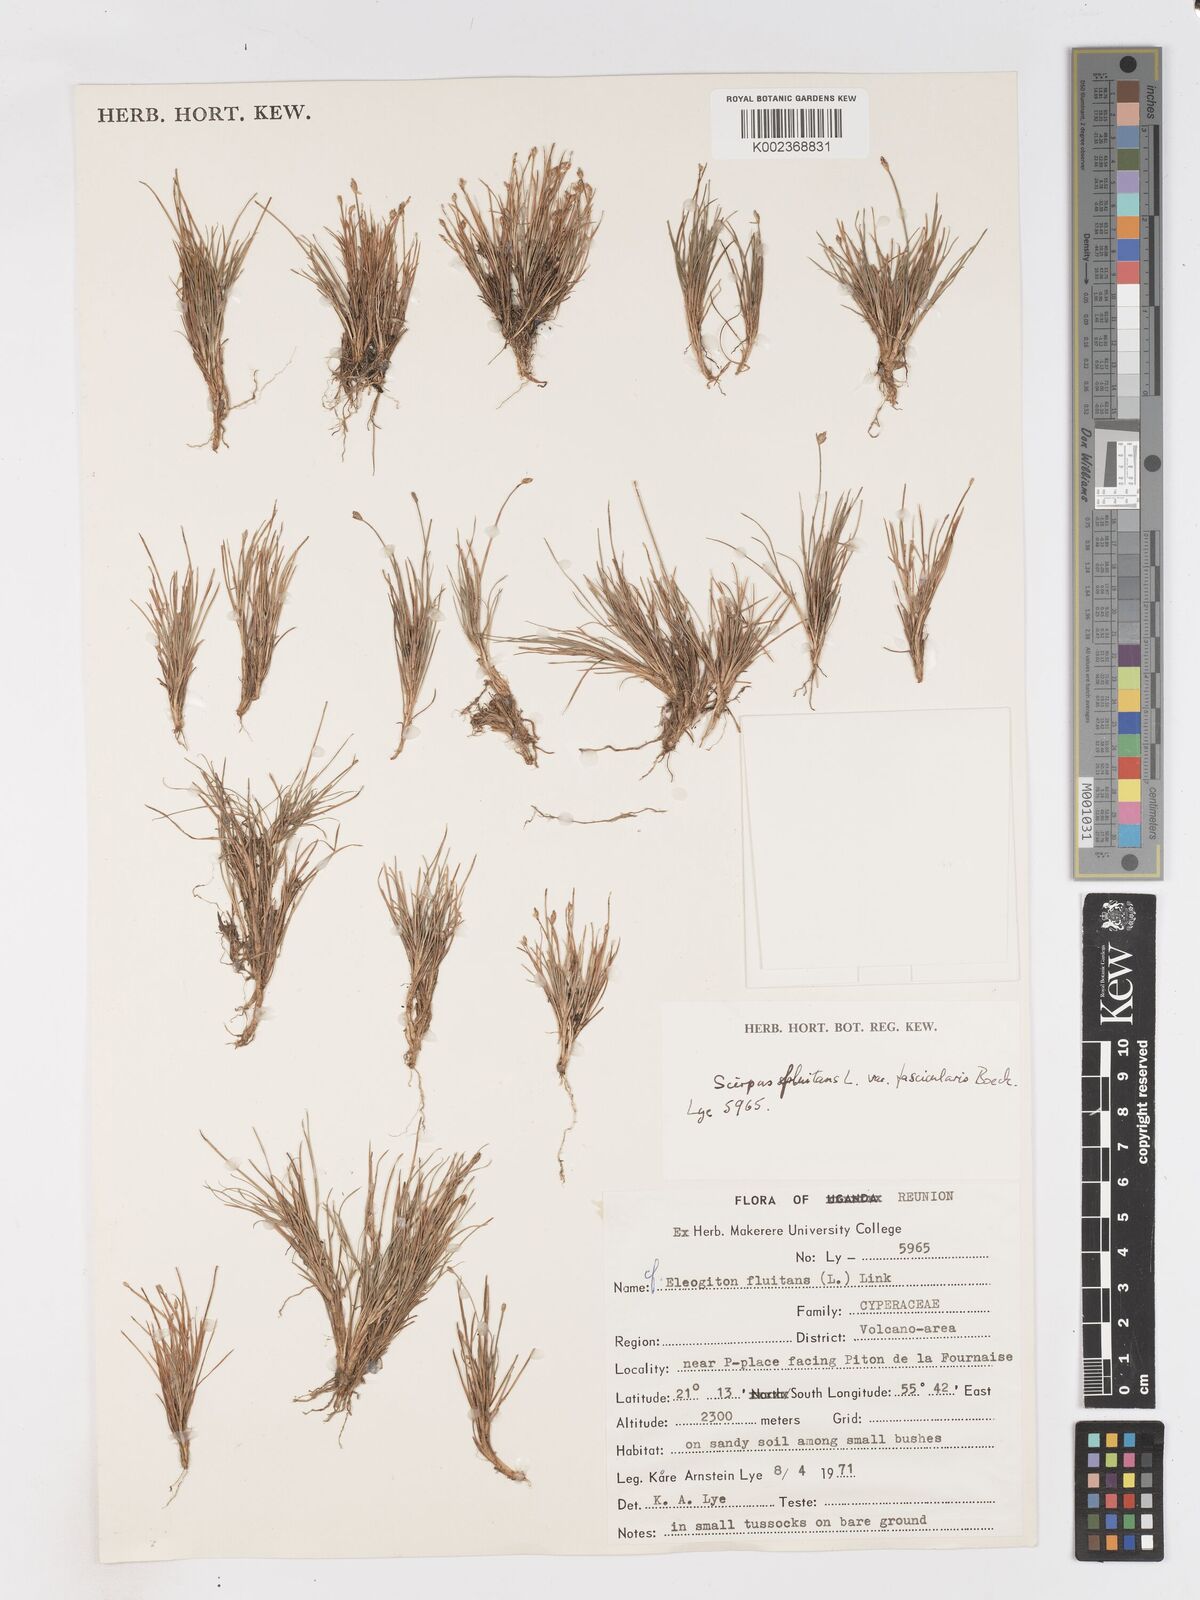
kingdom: Plantae
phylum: Tracheophyta
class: Liliopsida
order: Poales
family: Cyperaceae
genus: Isolepis
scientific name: Isolepis fluitans
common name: Floating club-rush
